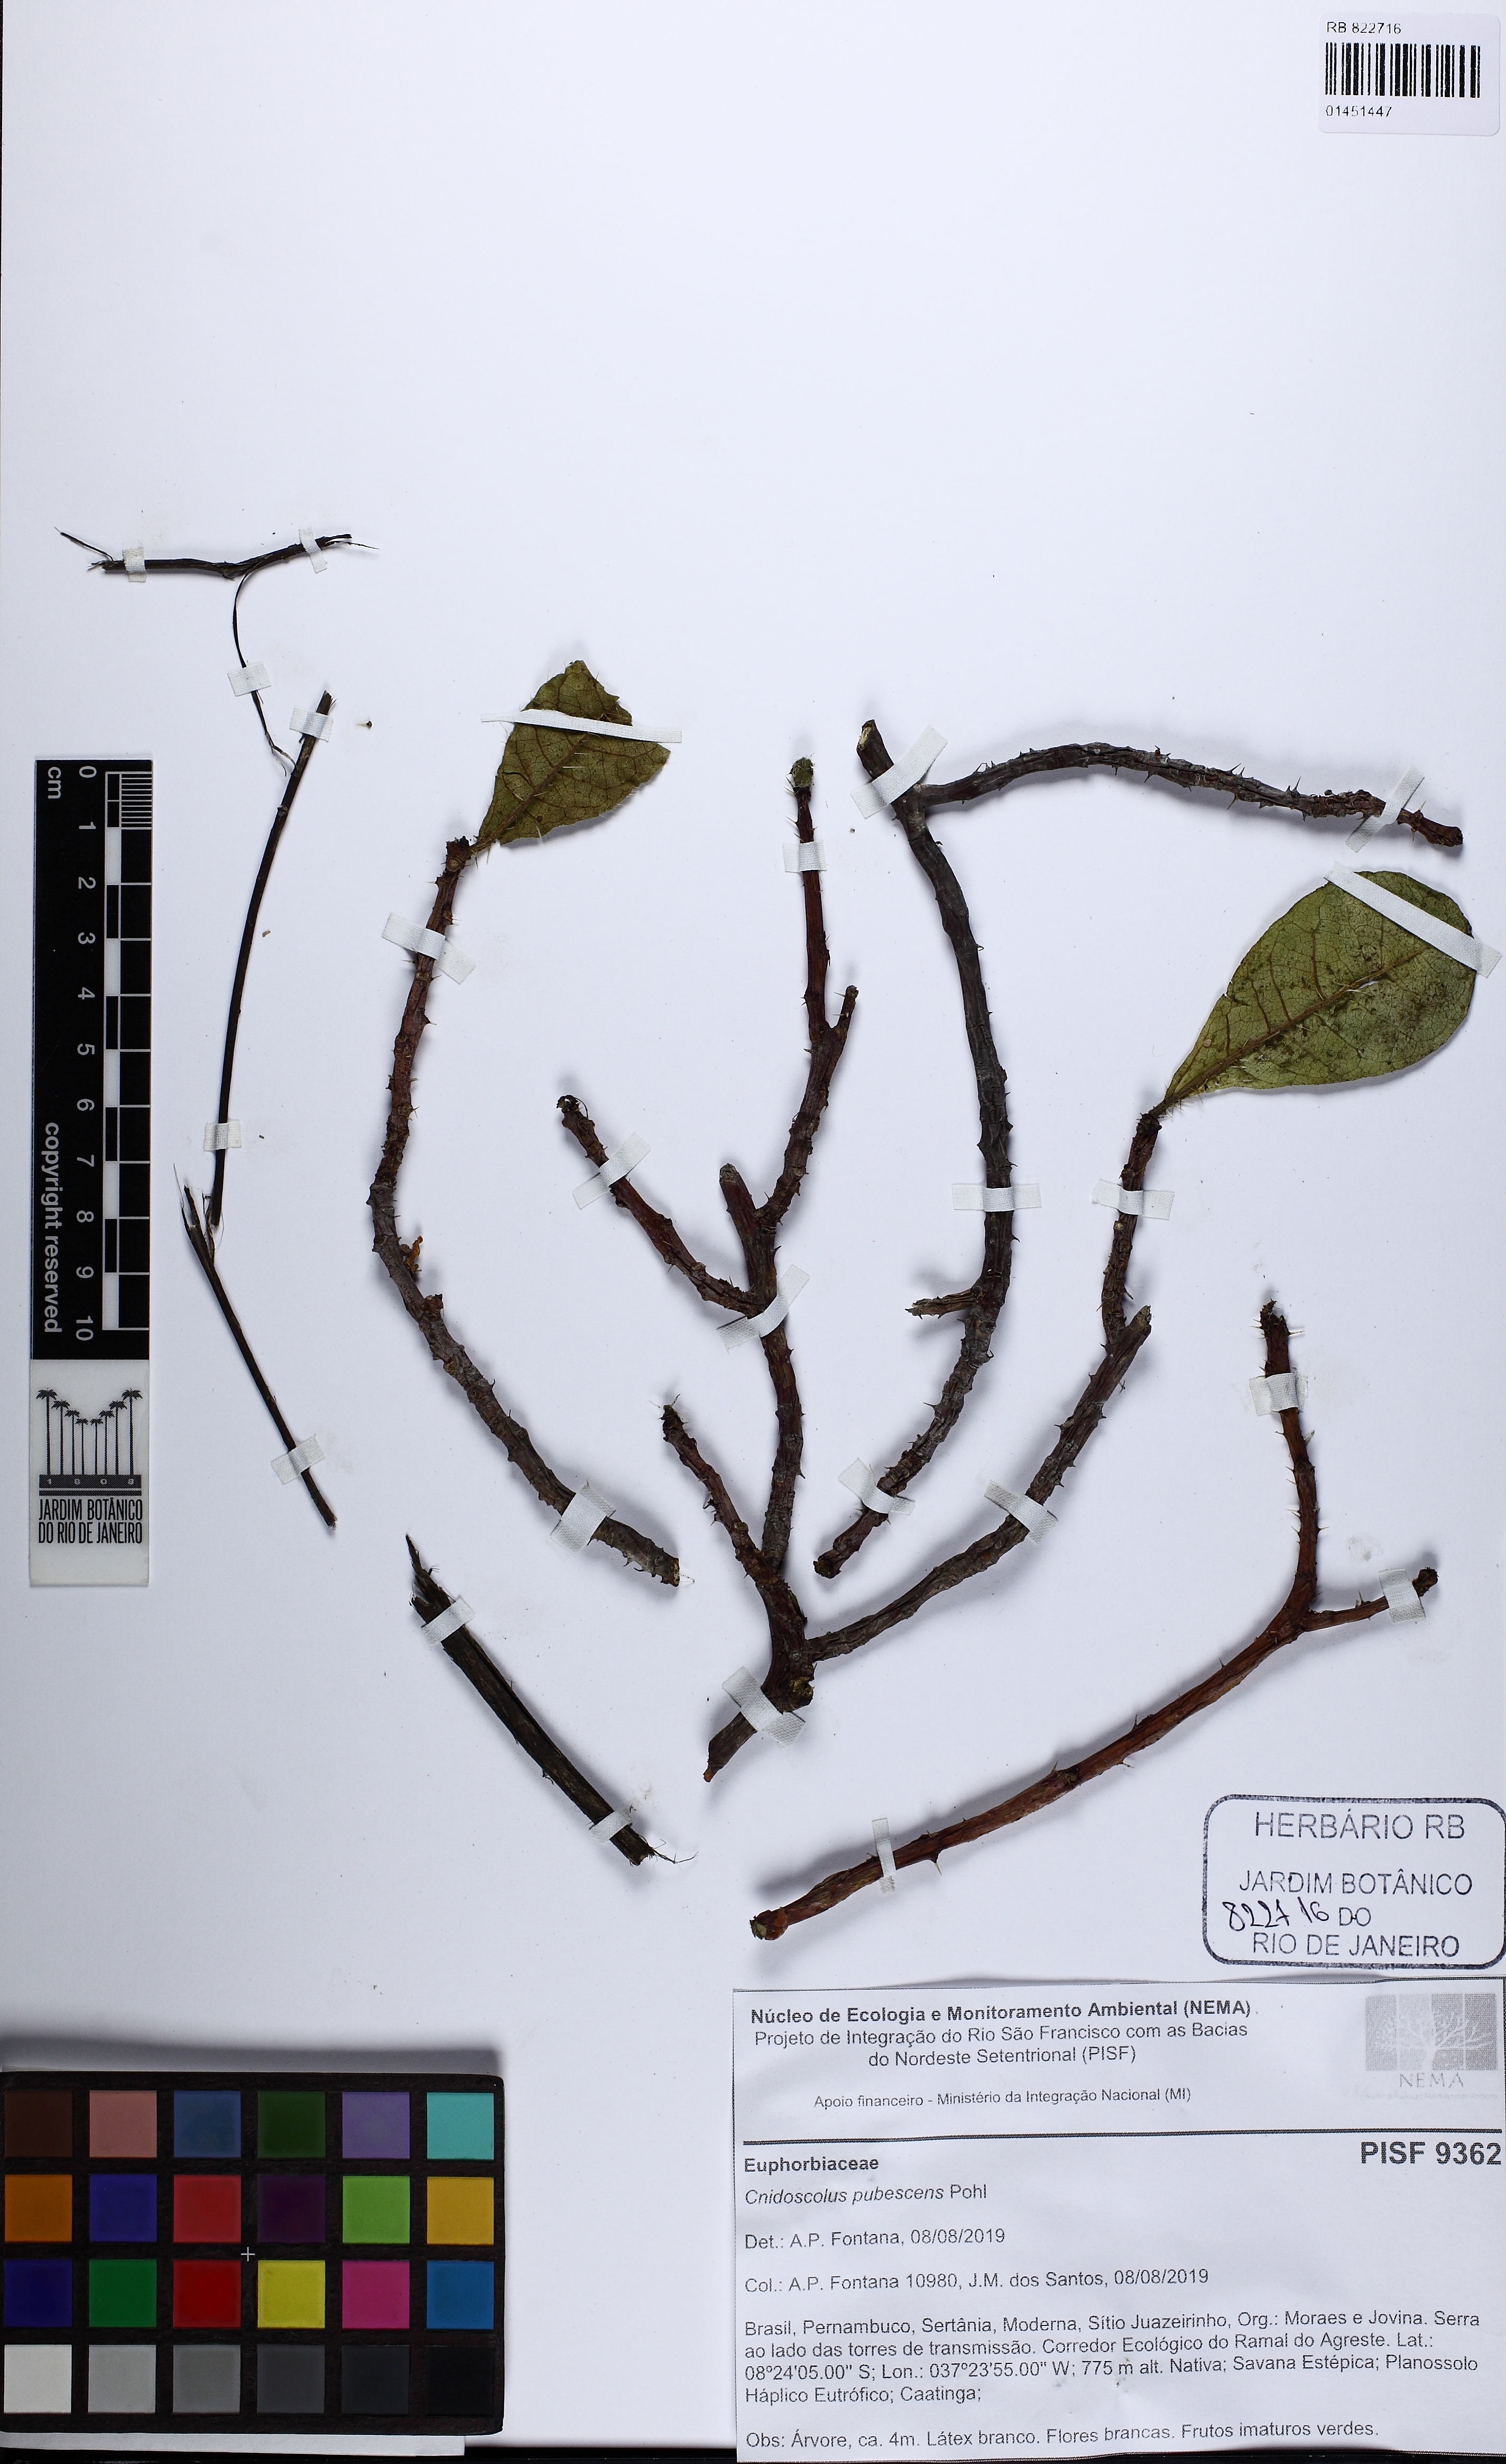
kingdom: Plantae
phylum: Tracheophyta
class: Magnoliopsida
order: Malpighiales
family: Euphorbiaceae
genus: Cnidoscolus
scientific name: Cnidoscolus pubescens
